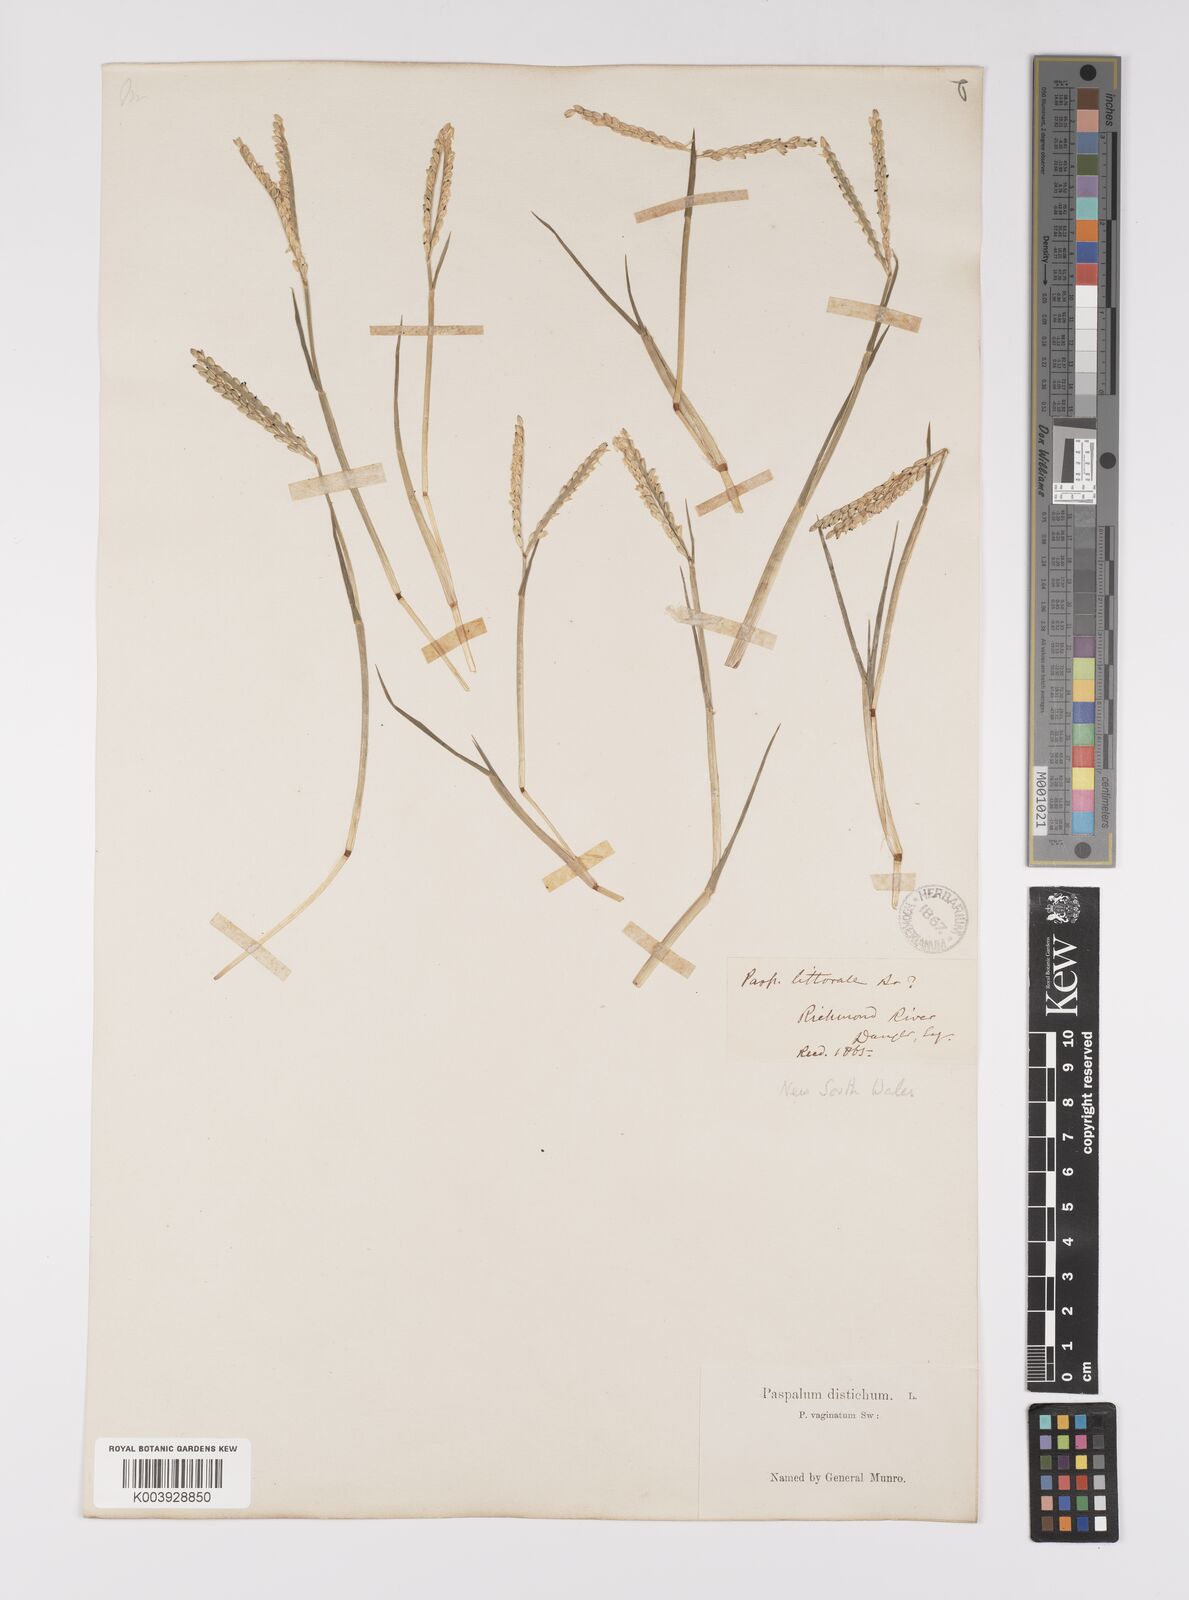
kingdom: Plantae
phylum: Tracheophyta
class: Liliopsida
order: Poales
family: Poaceae
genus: Paspalum
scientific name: Paspalum distichum
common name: Knotgrass
